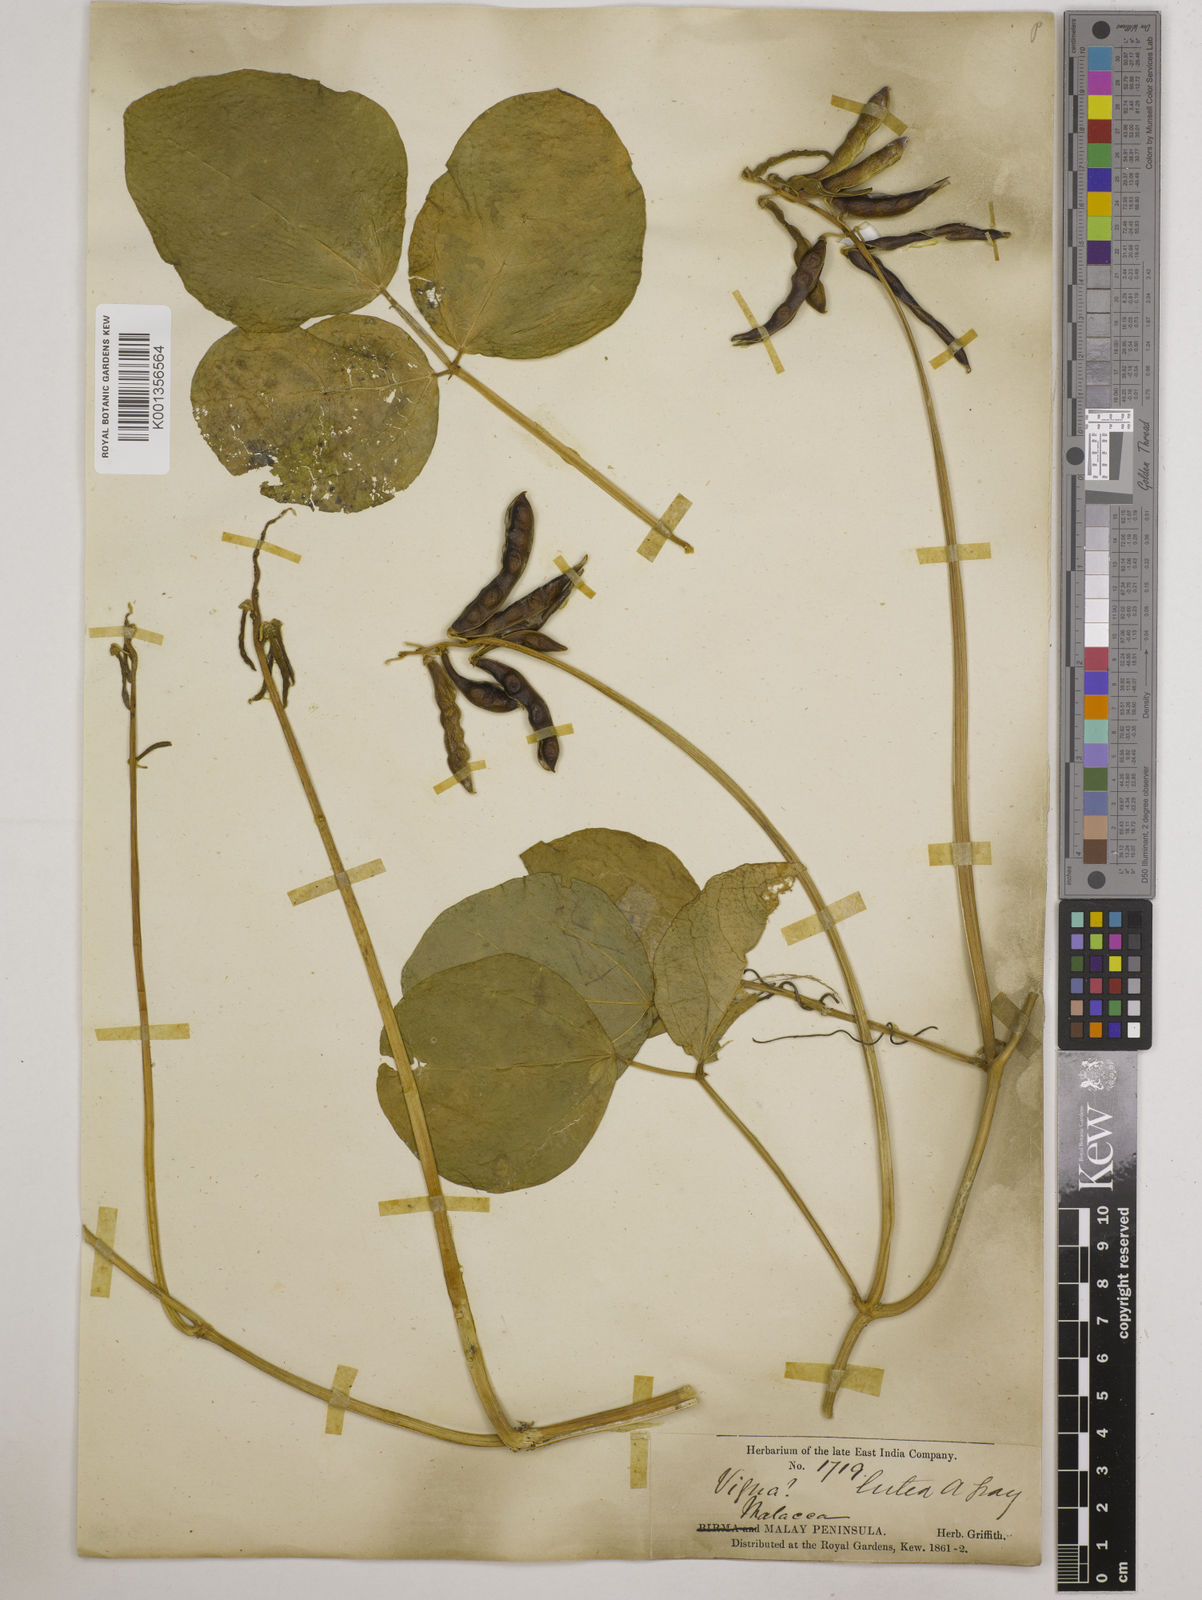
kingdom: Plantae
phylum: Tracheophyta
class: Magnoliopsida
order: Fabales
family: Fabaceae
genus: Vigna
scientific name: Vigna marina
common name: Dune-bean
